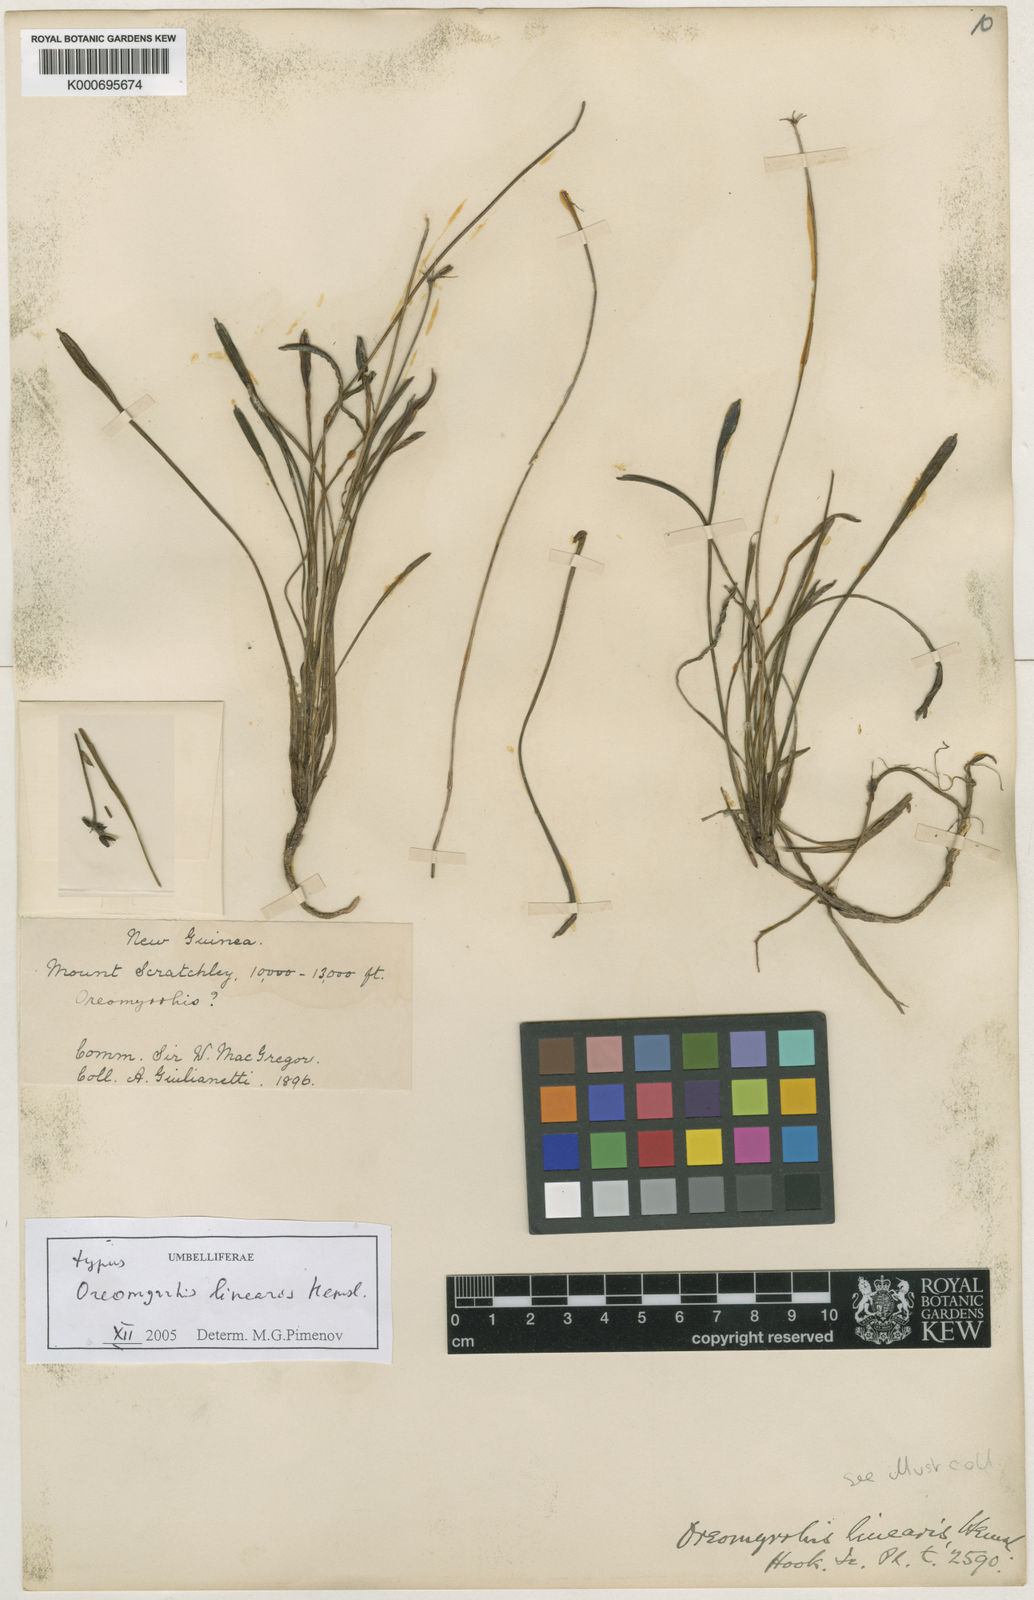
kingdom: Plantae
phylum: Tracheophyta
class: Magnoliopsida
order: Apiales
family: Apiaceae
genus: Chaerophyllum
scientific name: Chaerophyllum lineare
